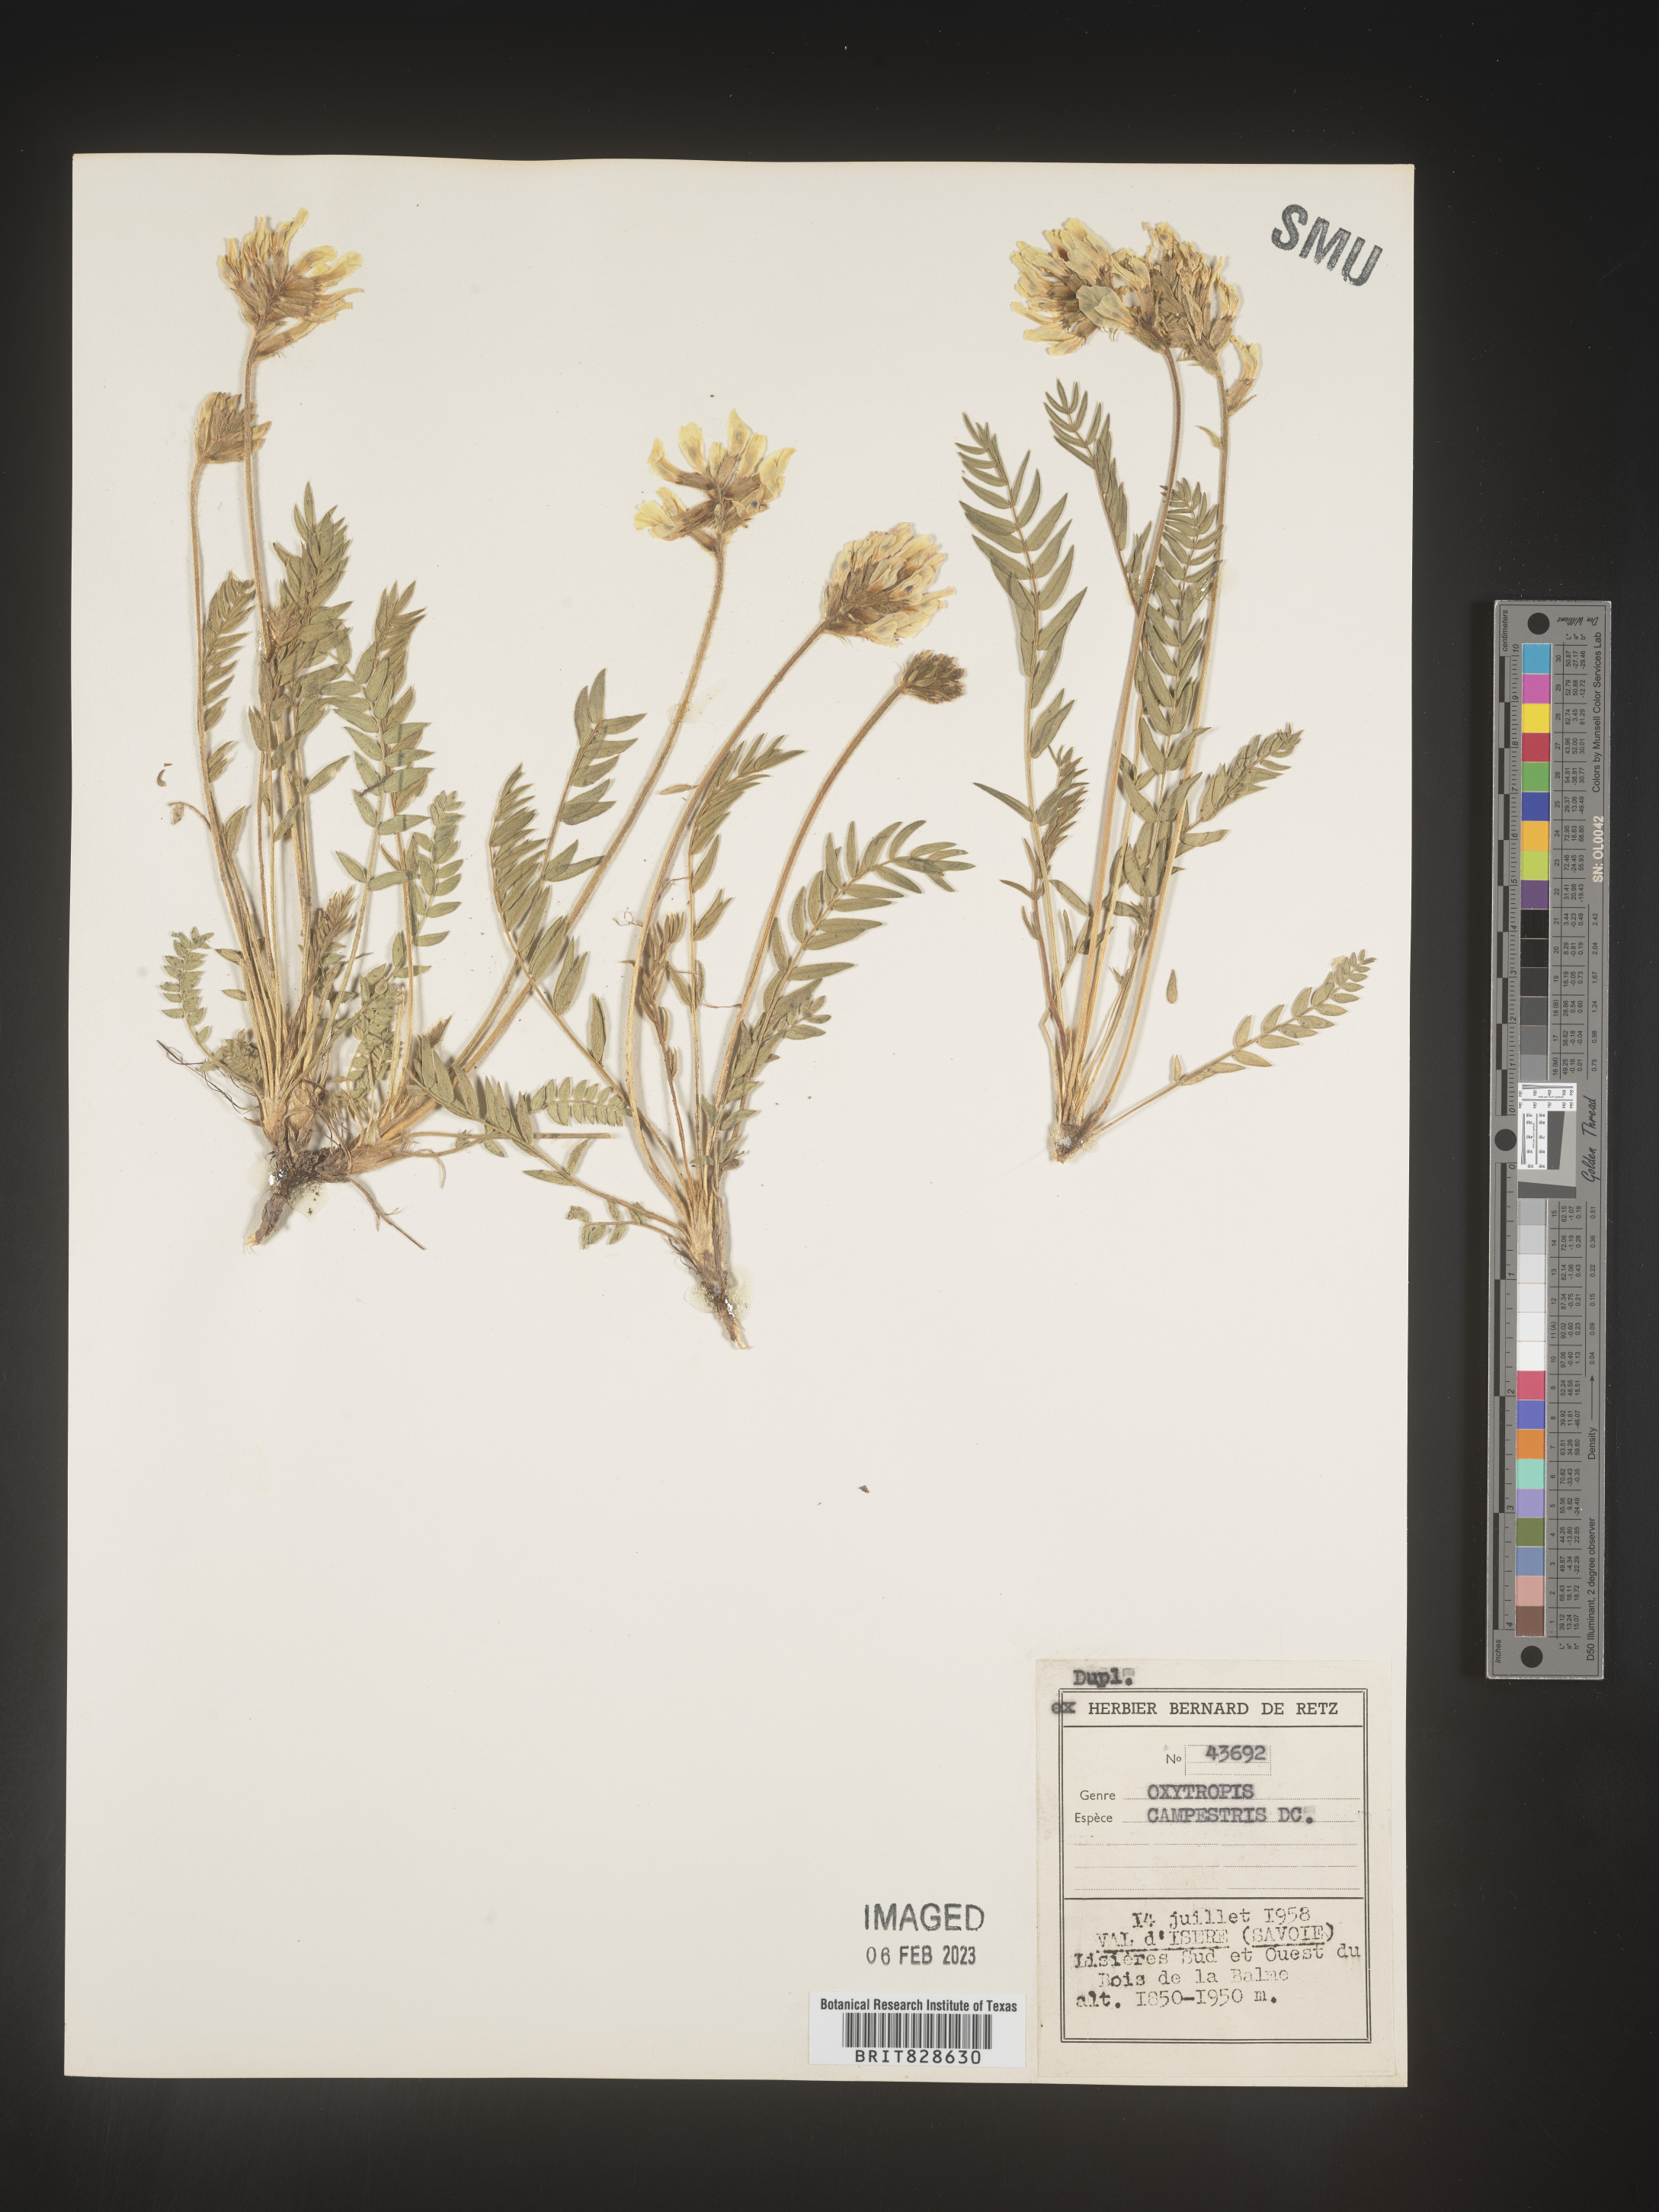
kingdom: Plantae
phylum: Tracheophyta
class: Magnoliopsida
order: Fabales
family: Fabaceae
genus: Oxytropis
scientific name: Oxytropis
